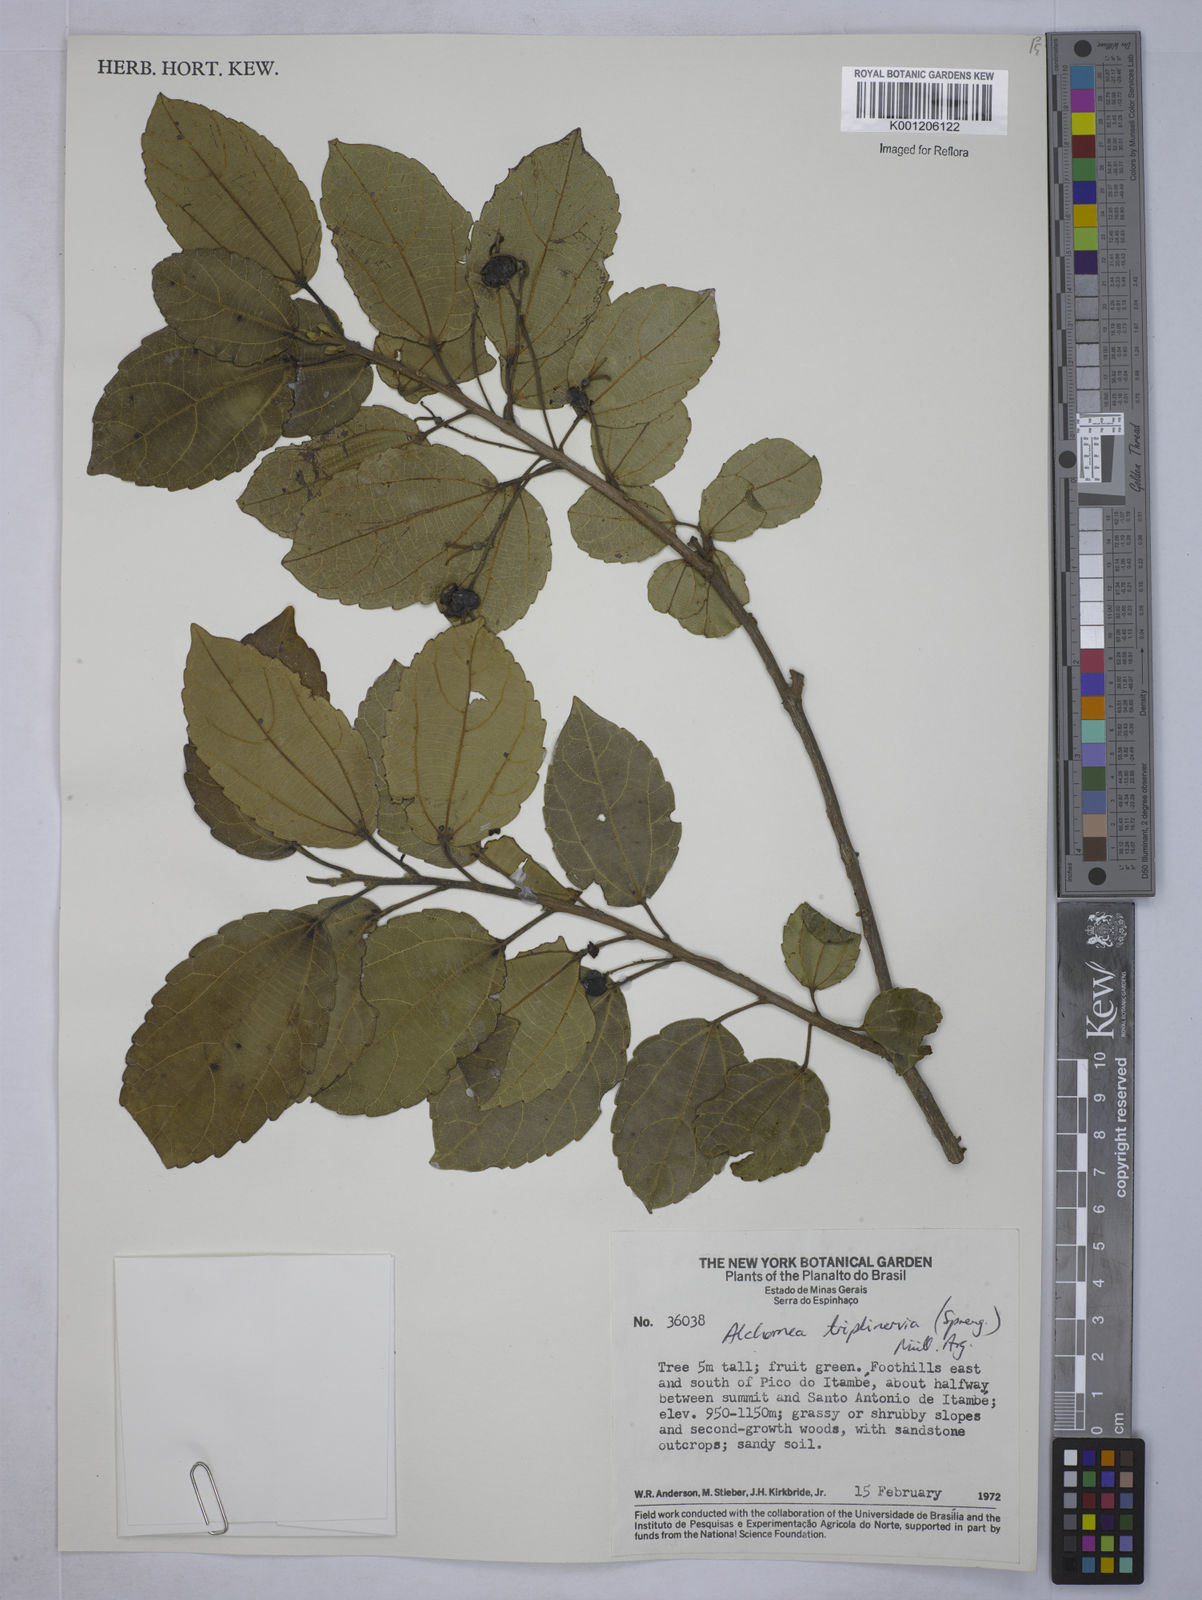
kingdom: Plantae
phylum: Tracheophyta
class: Magnoliopsida
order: Malpighiales
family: Euphorbiaceae
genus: Alchornea
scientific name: Alchornea
